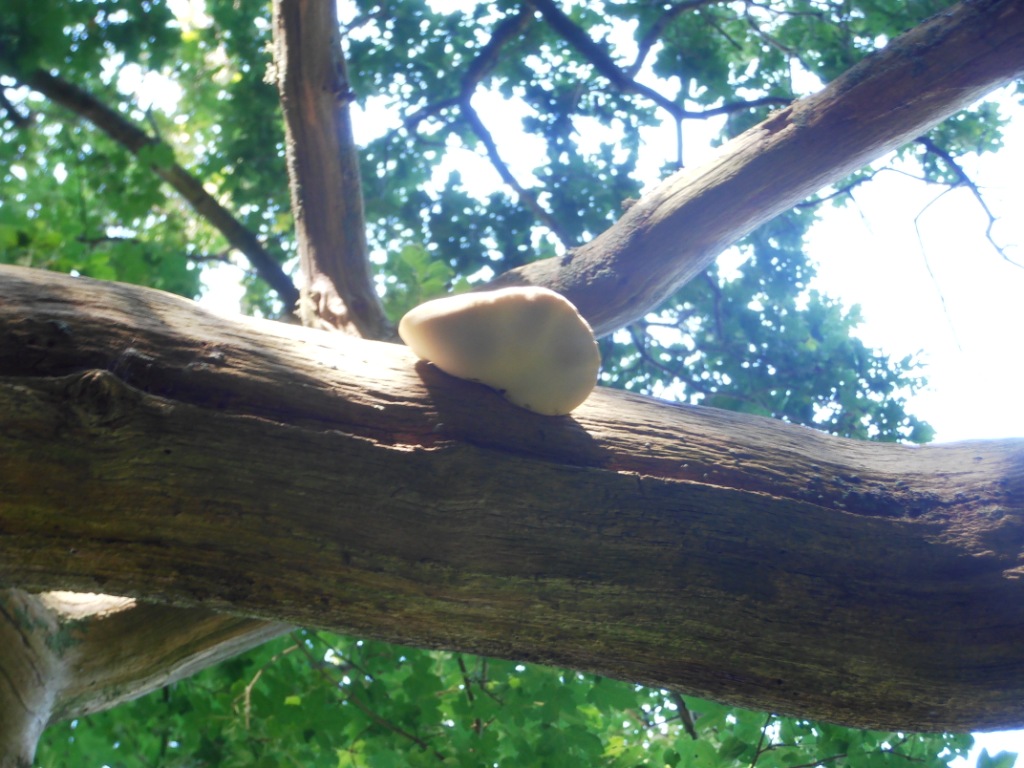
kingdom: Fungi
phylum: Basidiomycota
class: Agaricomycetes
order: Polyporales
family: Fomitopsidaceae
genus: Buglossoporus
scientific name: Buglossoporus quercinus
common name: egetunge
